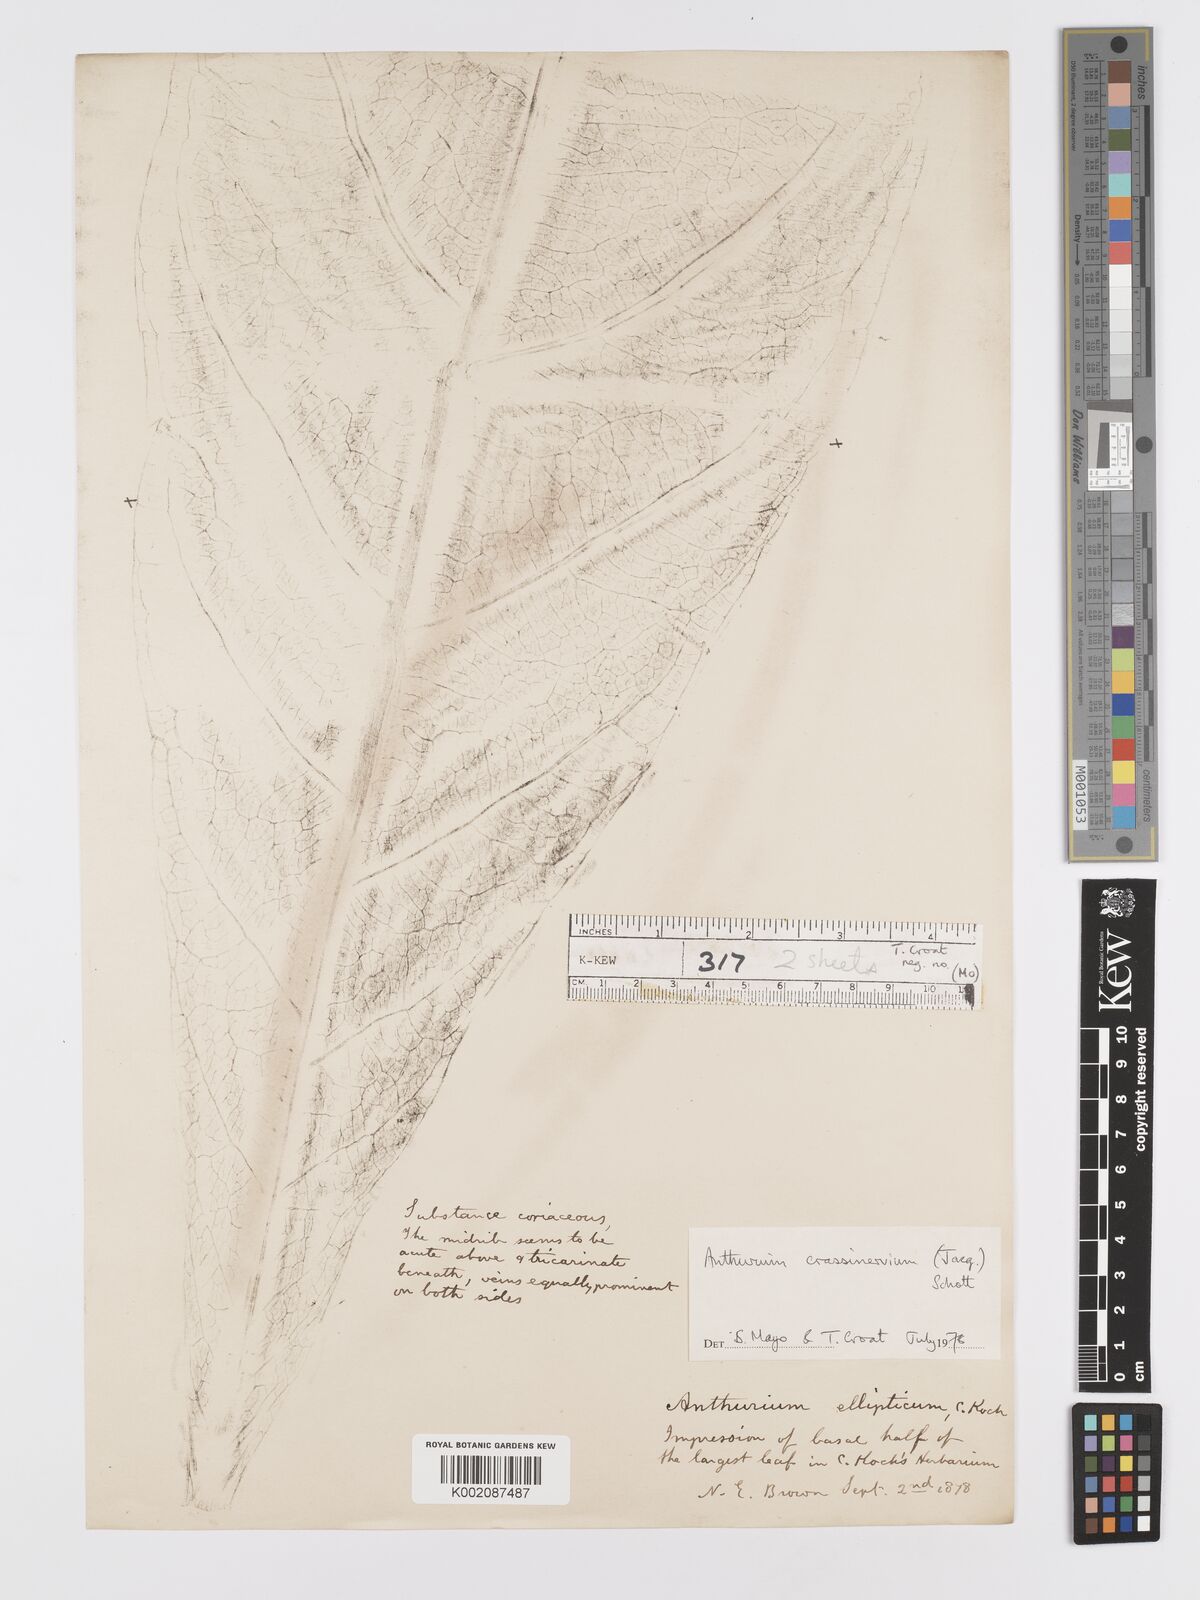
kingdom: Plantae
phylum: Tracheophyta
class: Liliopsida
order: Alismatales
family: Araceae
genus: Anthurium
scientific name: Anthurium crassinervium
